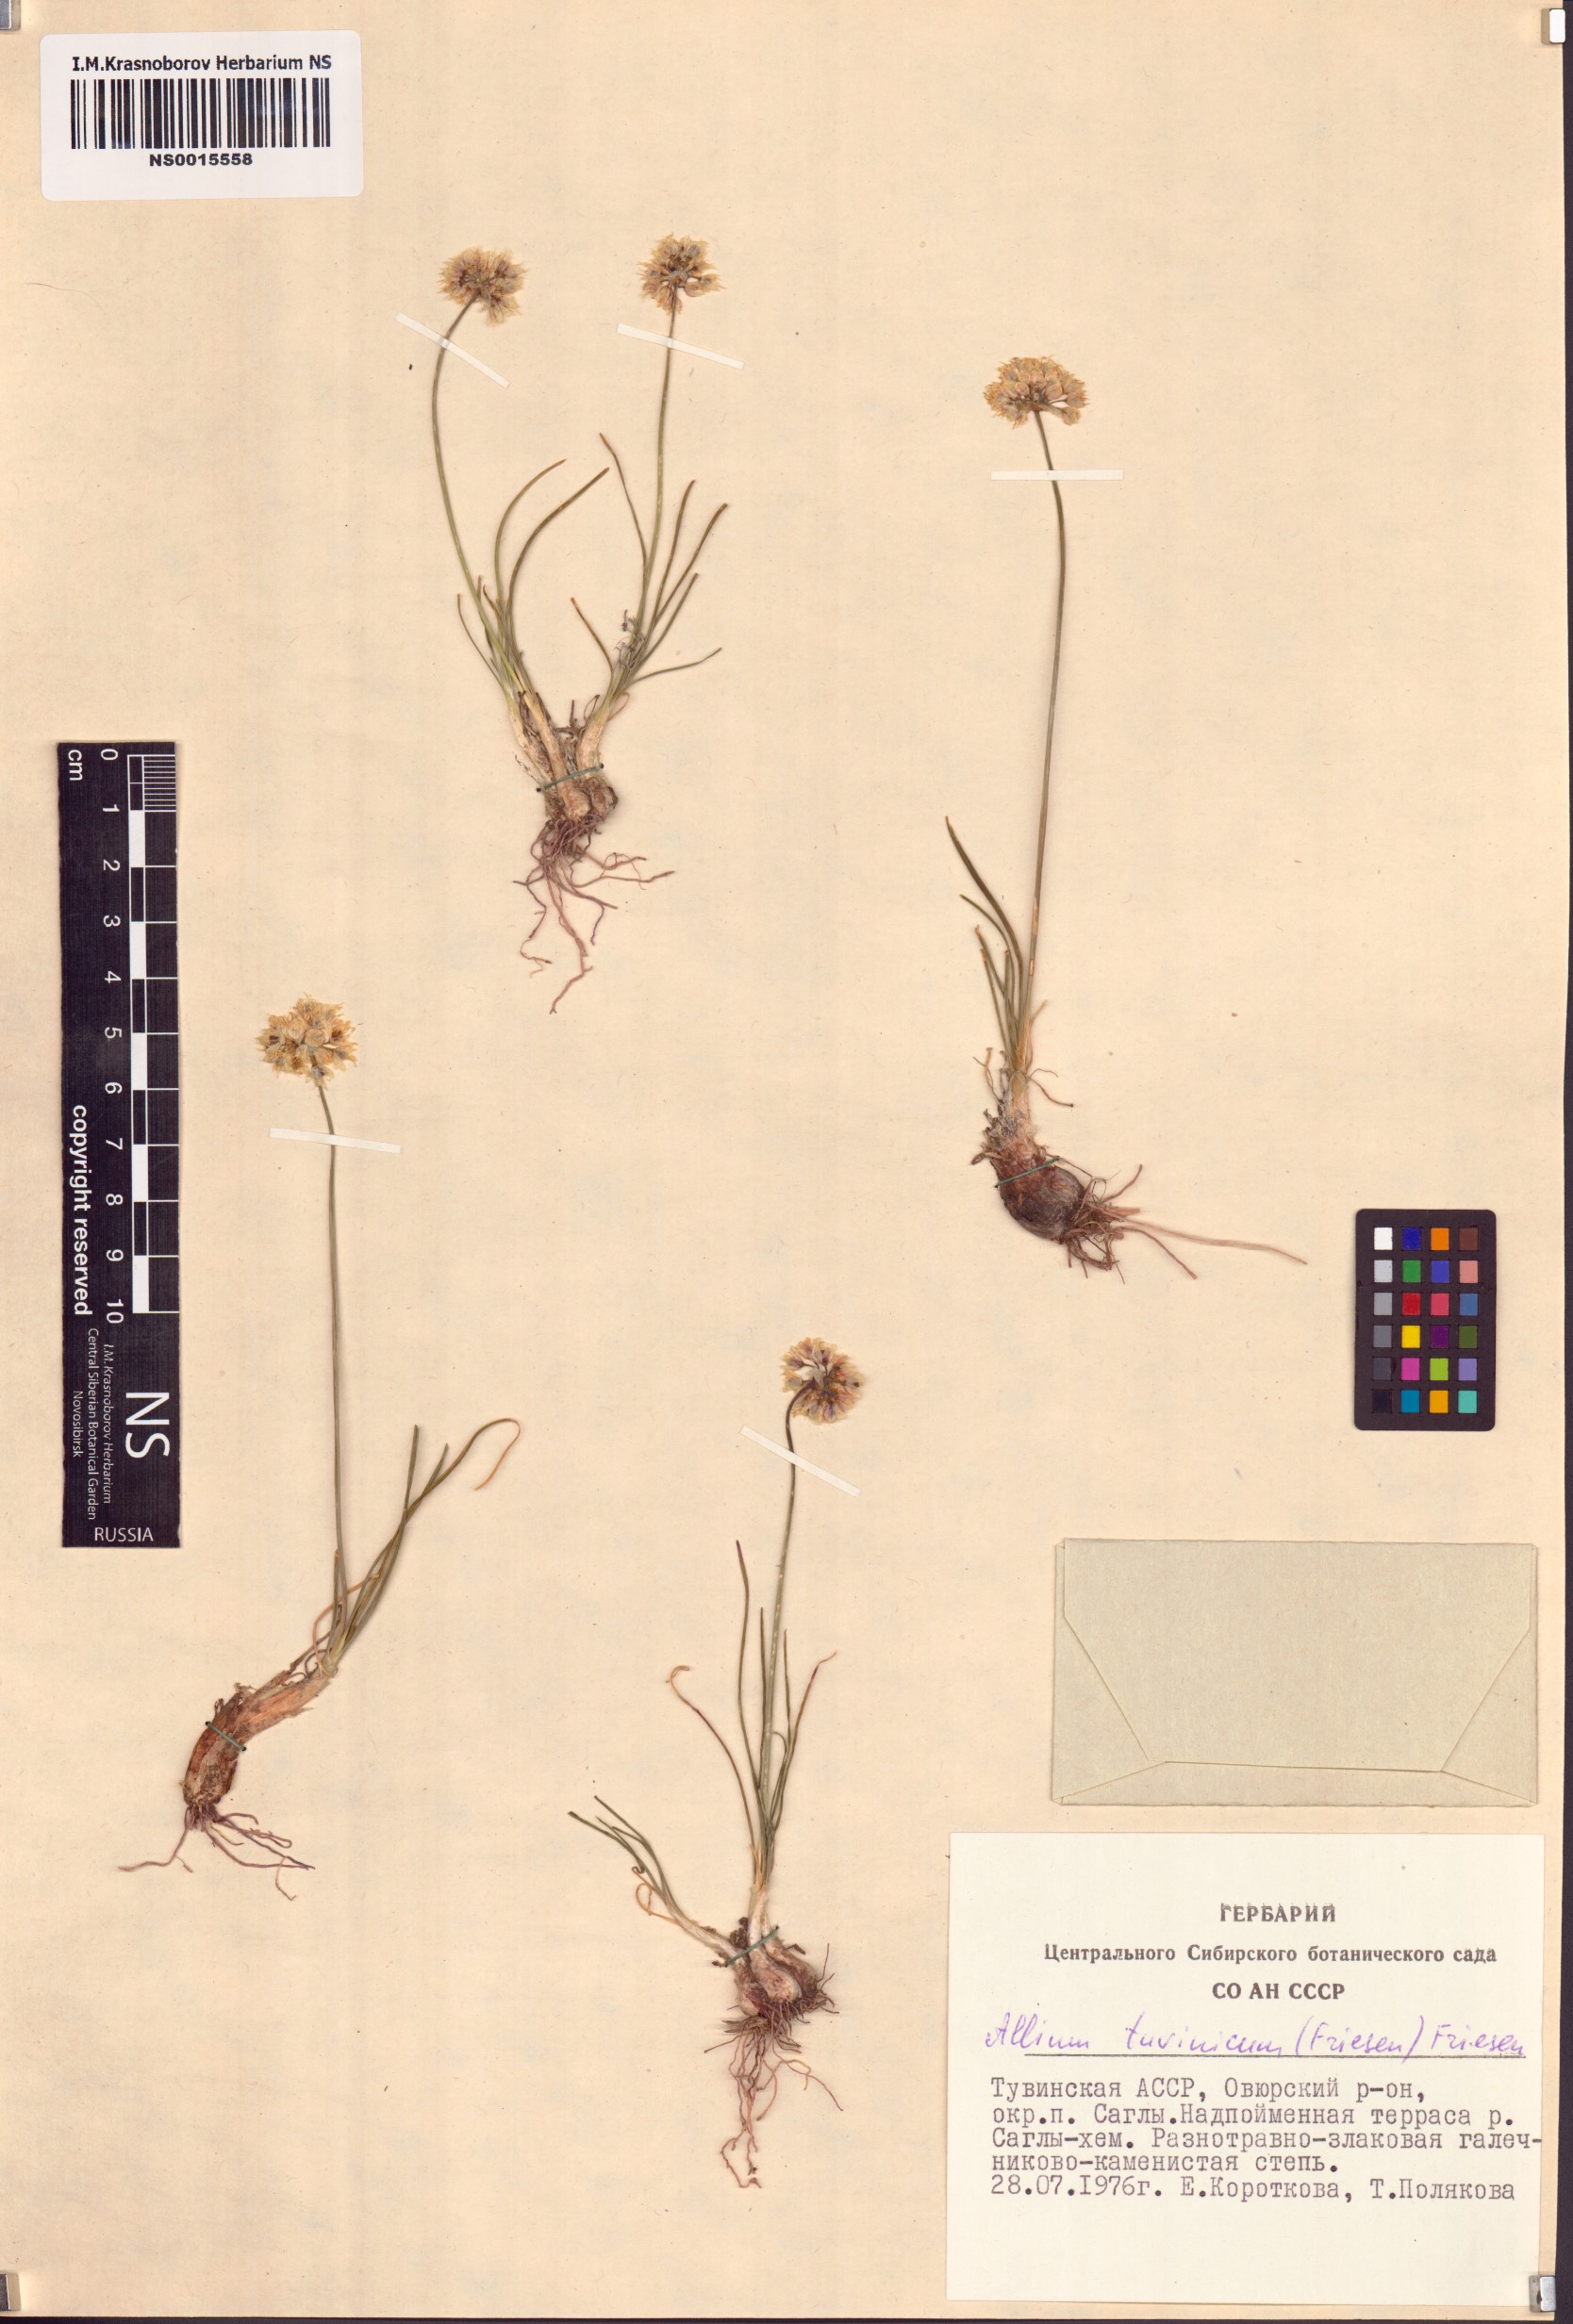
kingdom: Plantae
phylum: Tracheophyta
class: Liliopsida
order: Asparagales
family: Amaryllidaceae
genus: Allium
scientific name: Allium tuvinicum
